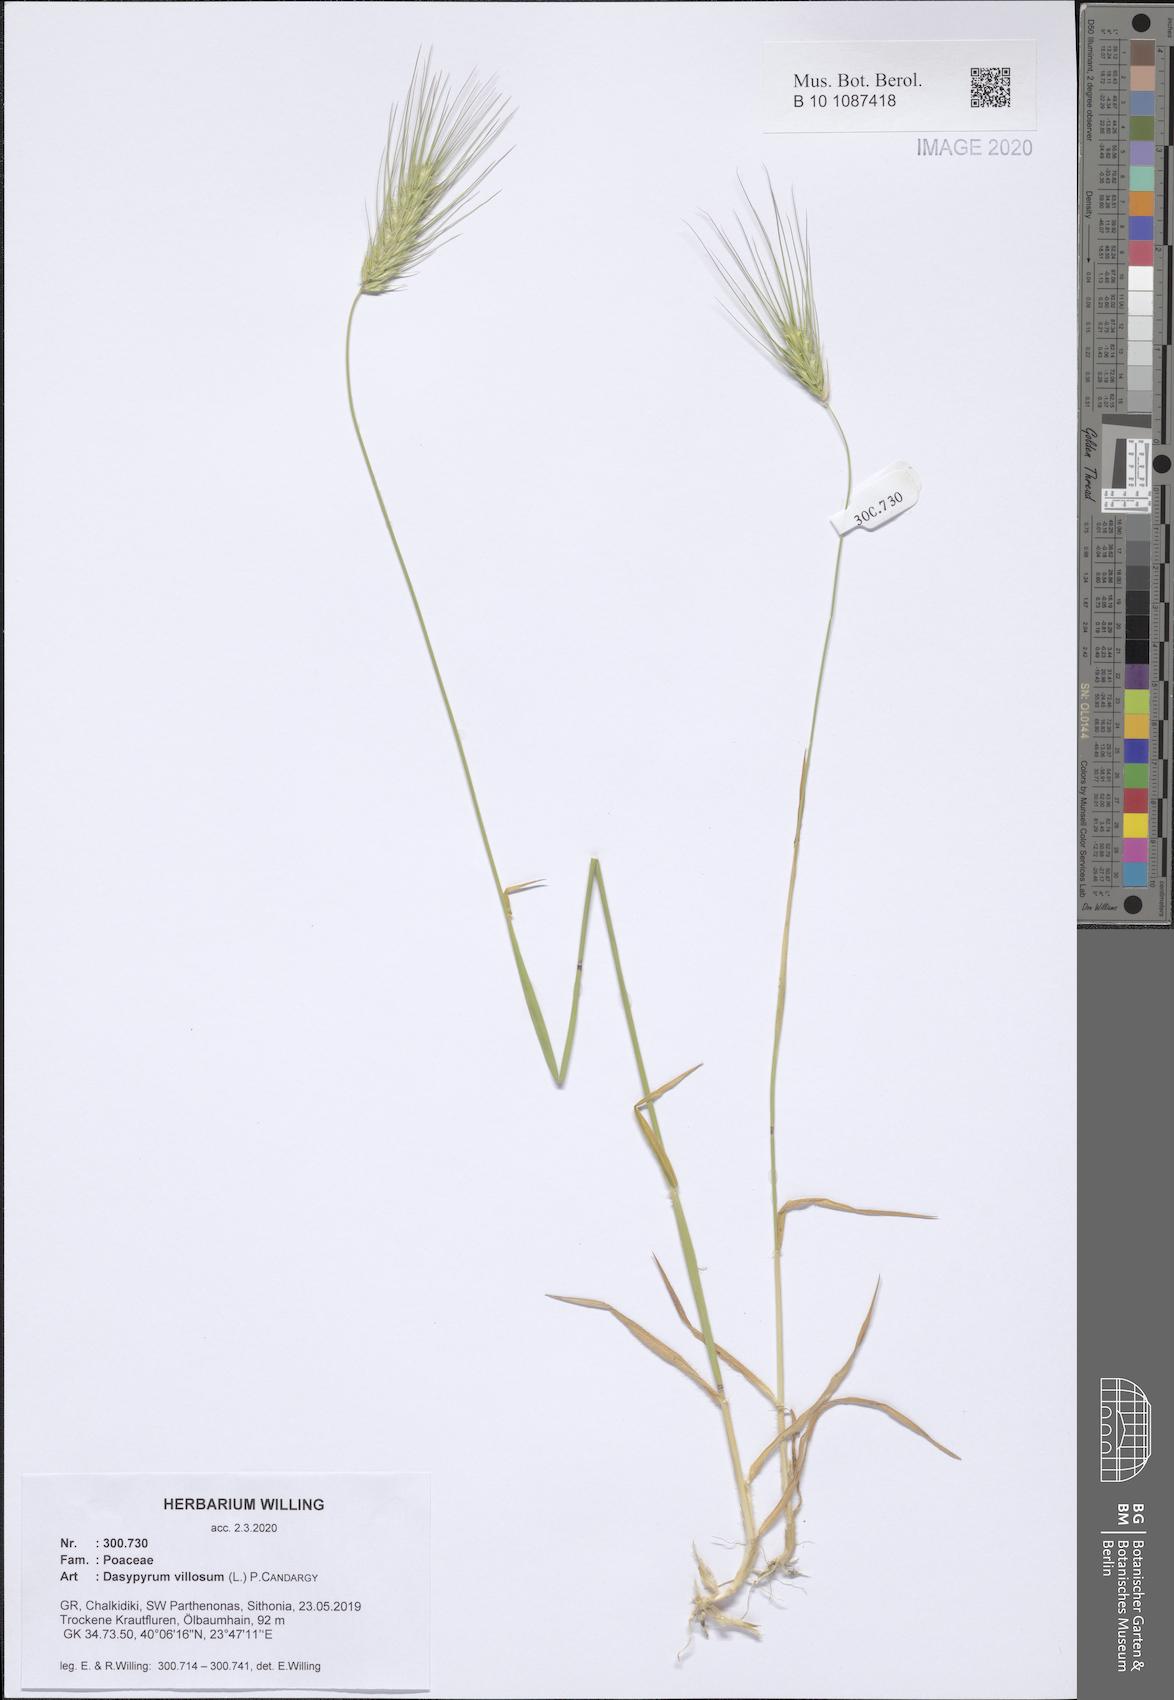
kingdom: Plantae
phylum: Tracheophyta
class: Liliopsida
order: Poales
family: Poaceae
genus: Dasypyrum
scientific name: Dasypyrum villosum
